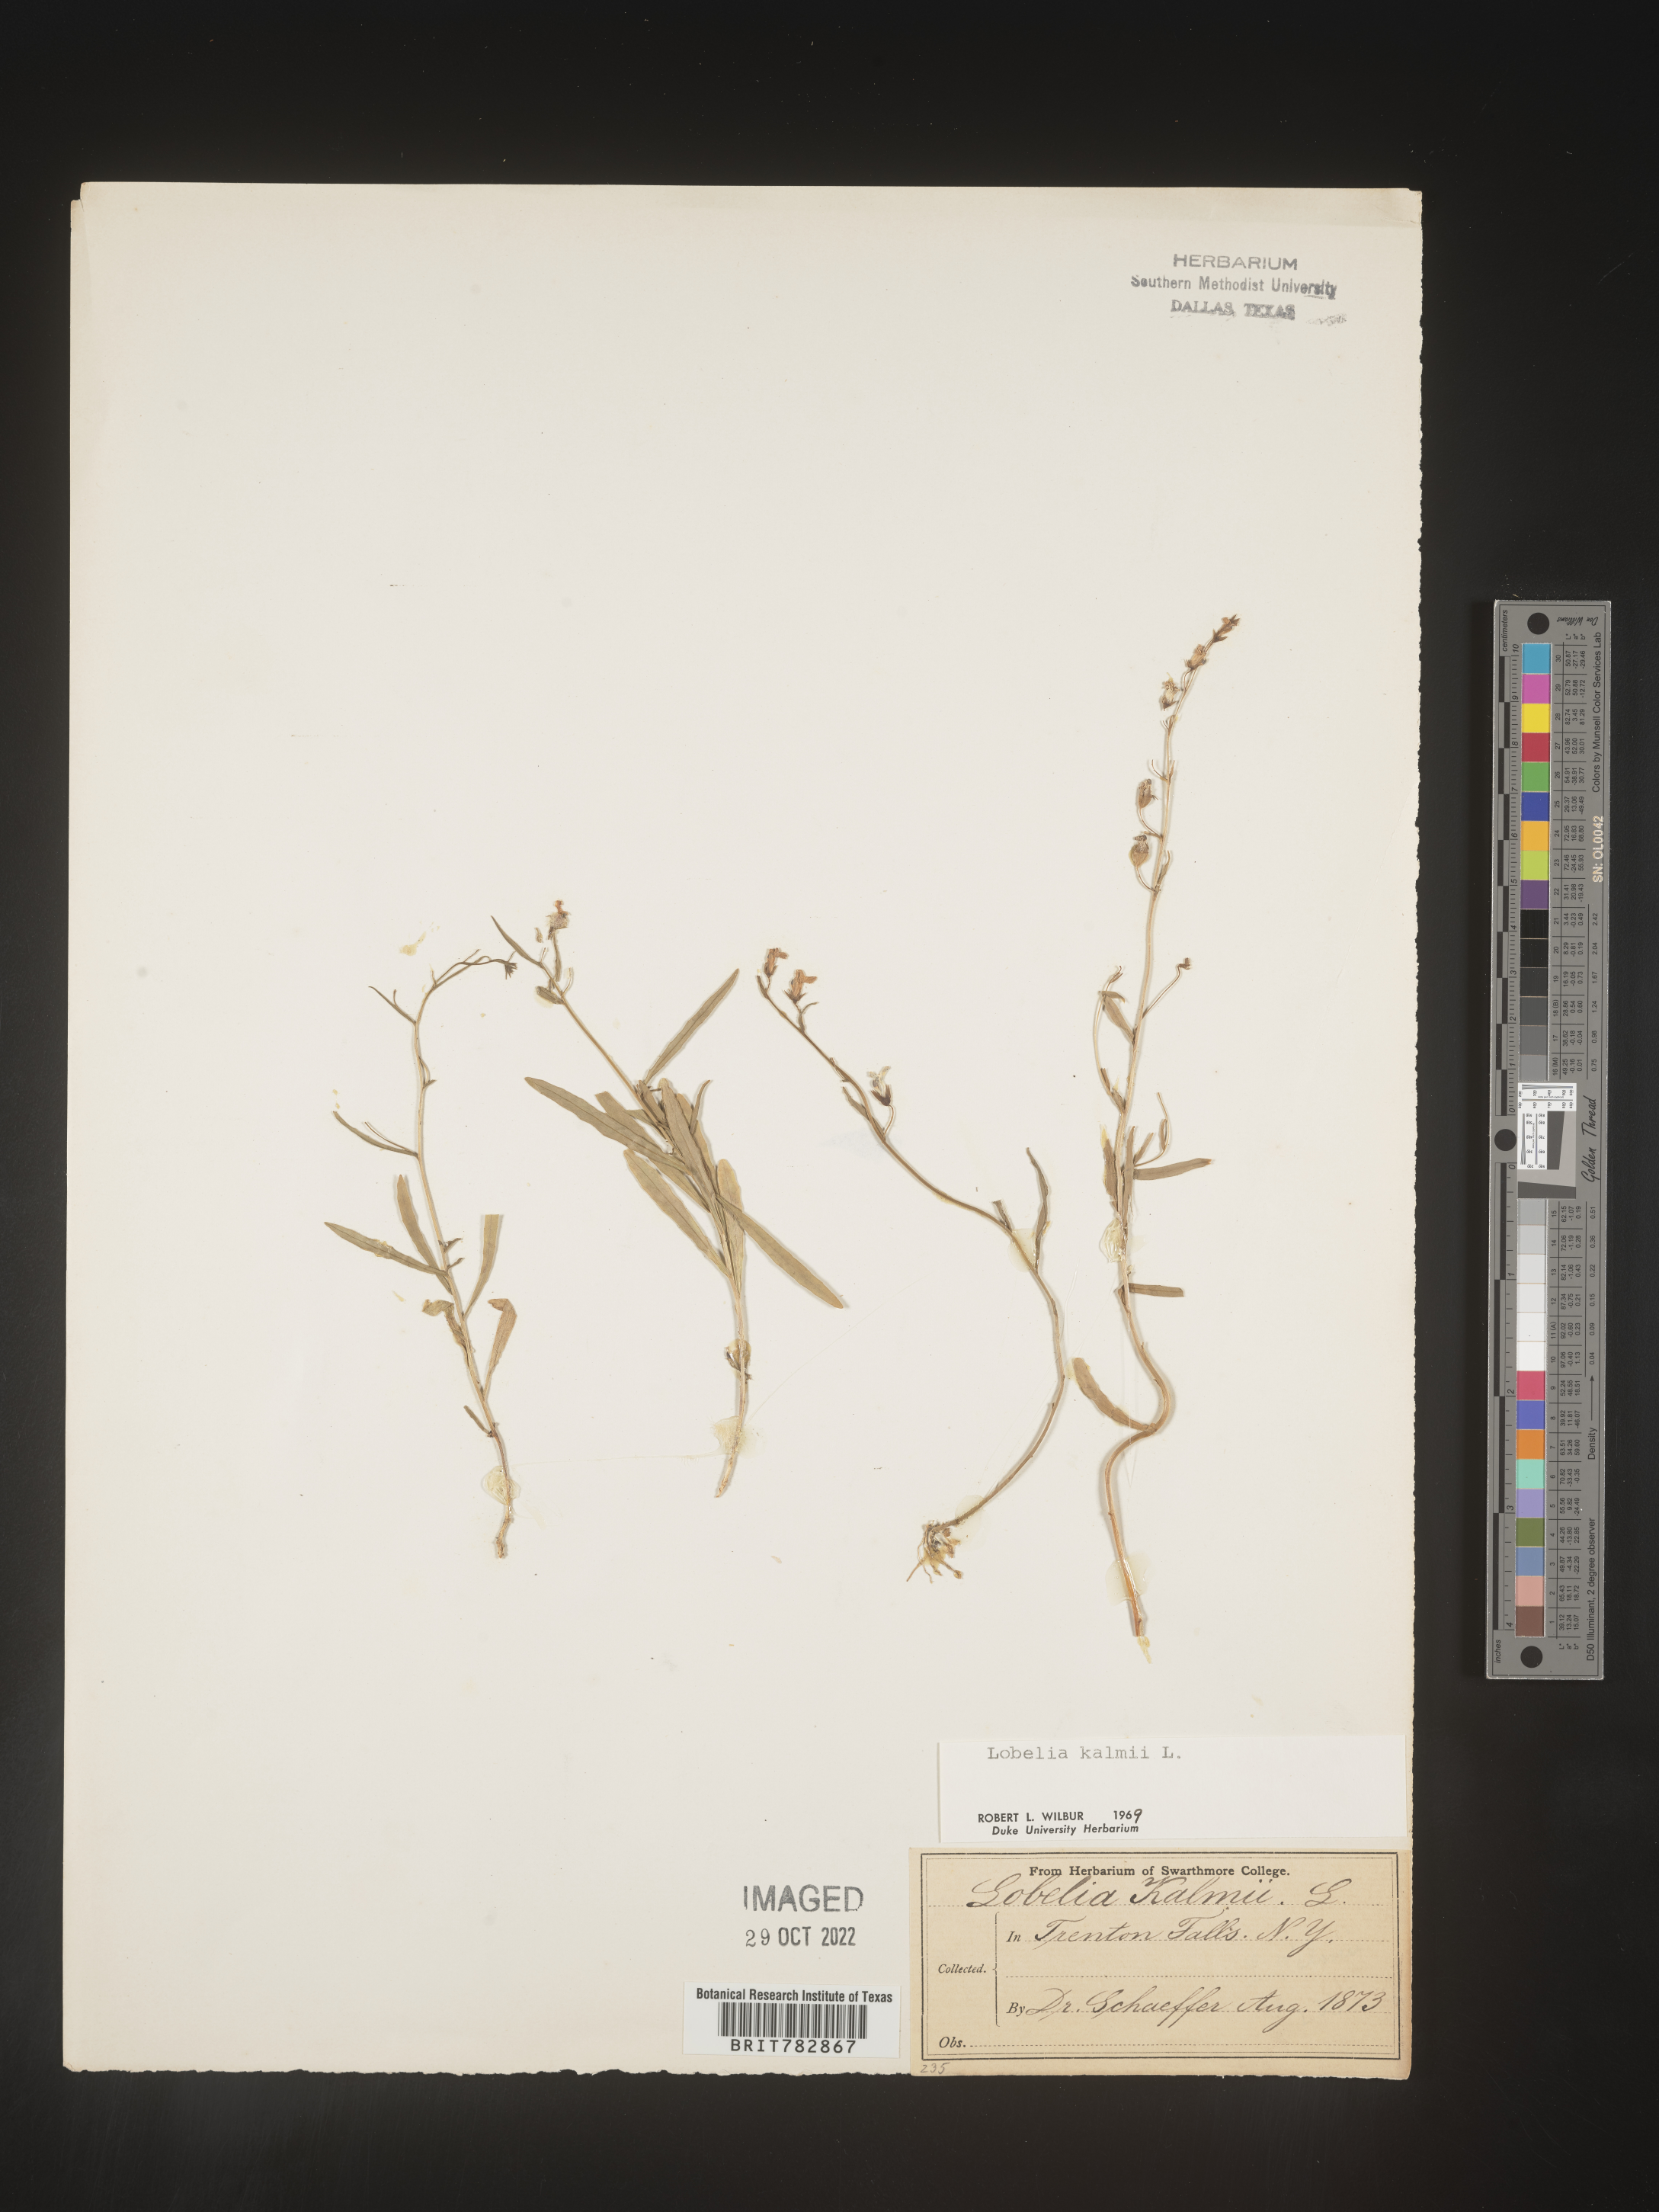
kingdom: Plantae
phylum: Tracheophyta
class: Magnoliopsida
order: Asterales
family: Campanulaceae
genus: Lobelia
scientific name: Lobelia
